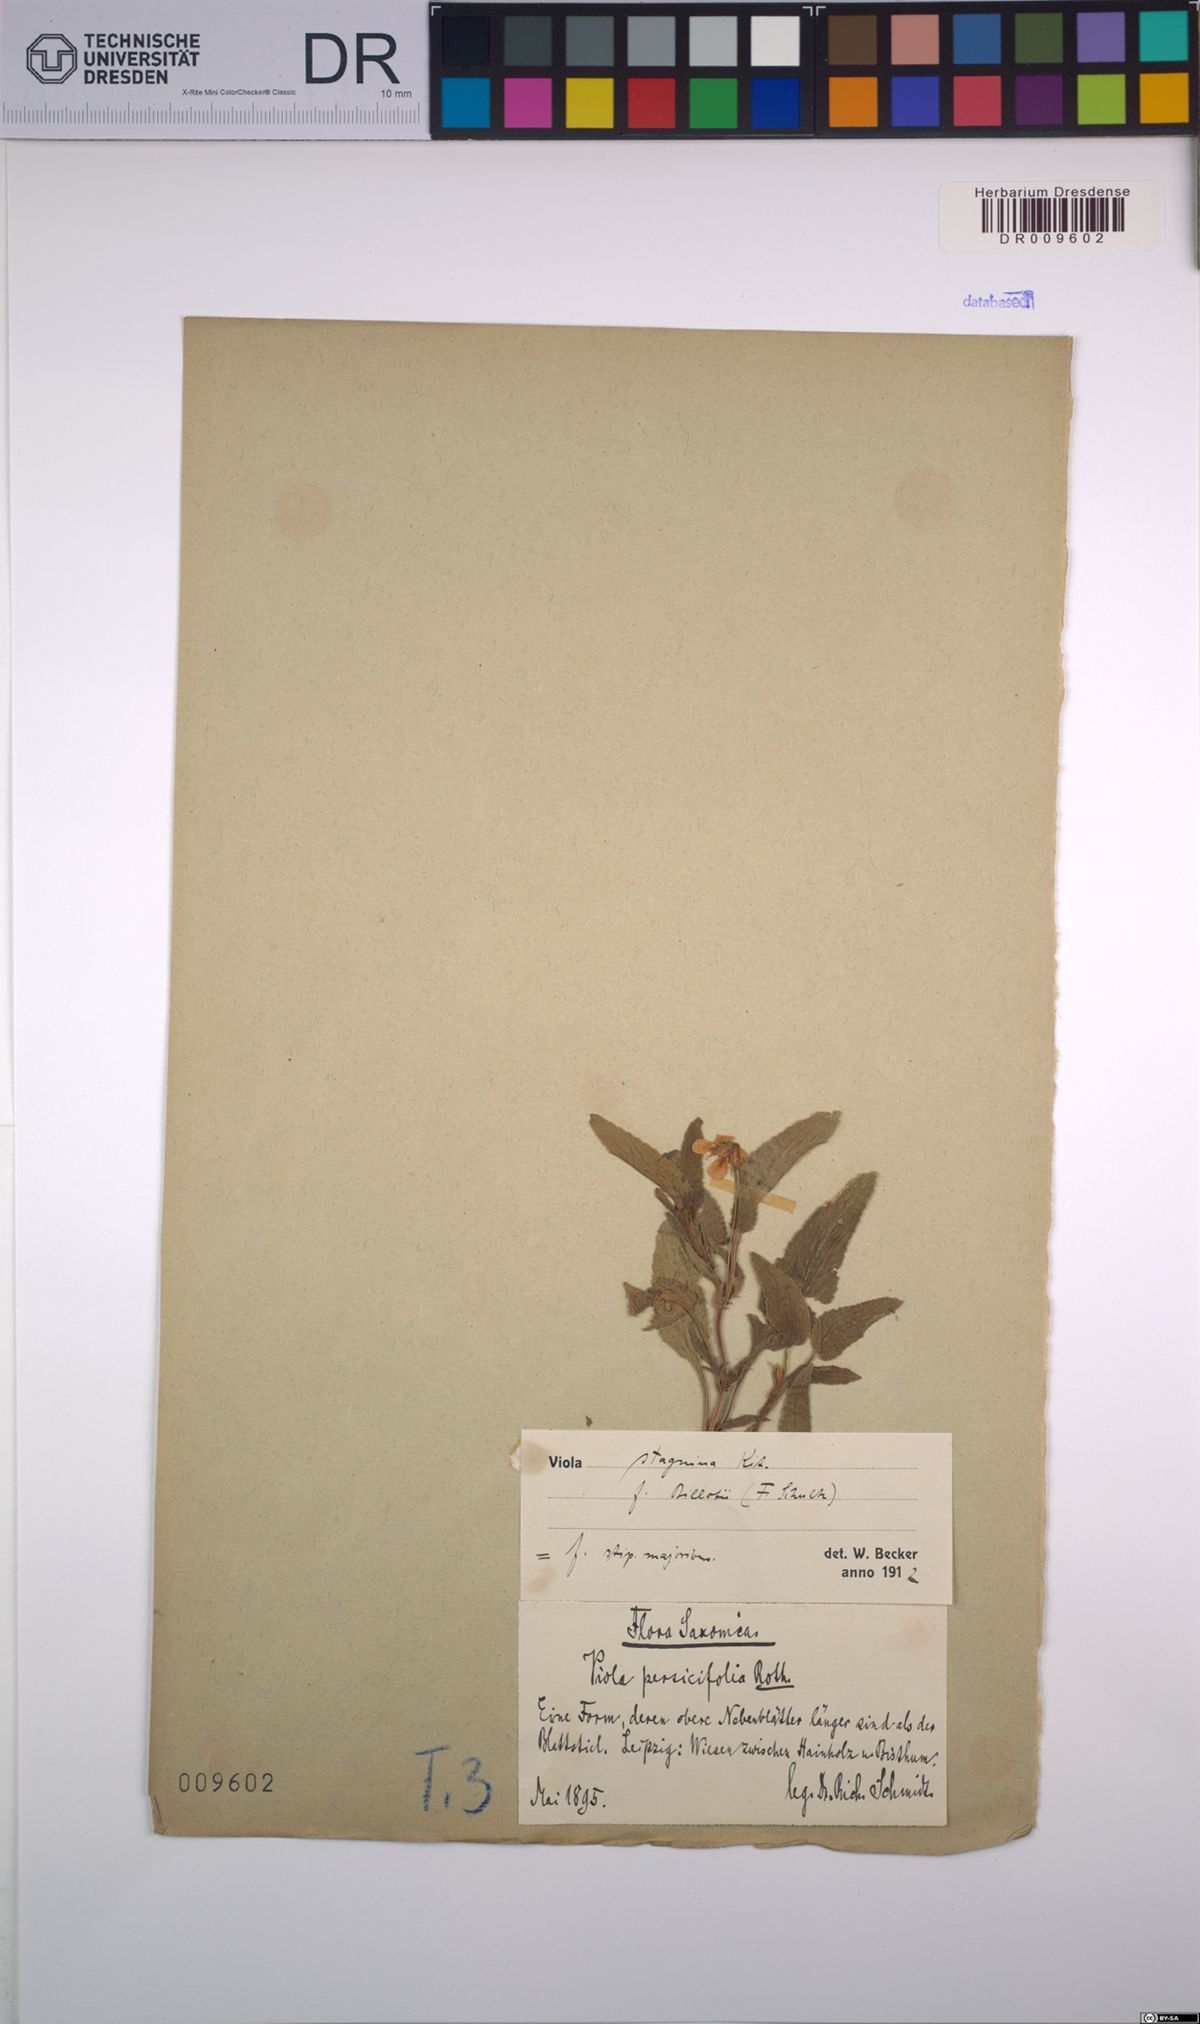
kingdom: Plantae
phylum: Tracheophyta
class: Magnoliopsida
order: Malpighiales
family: Violaceae
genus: Viola
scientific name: Viola stagnina
